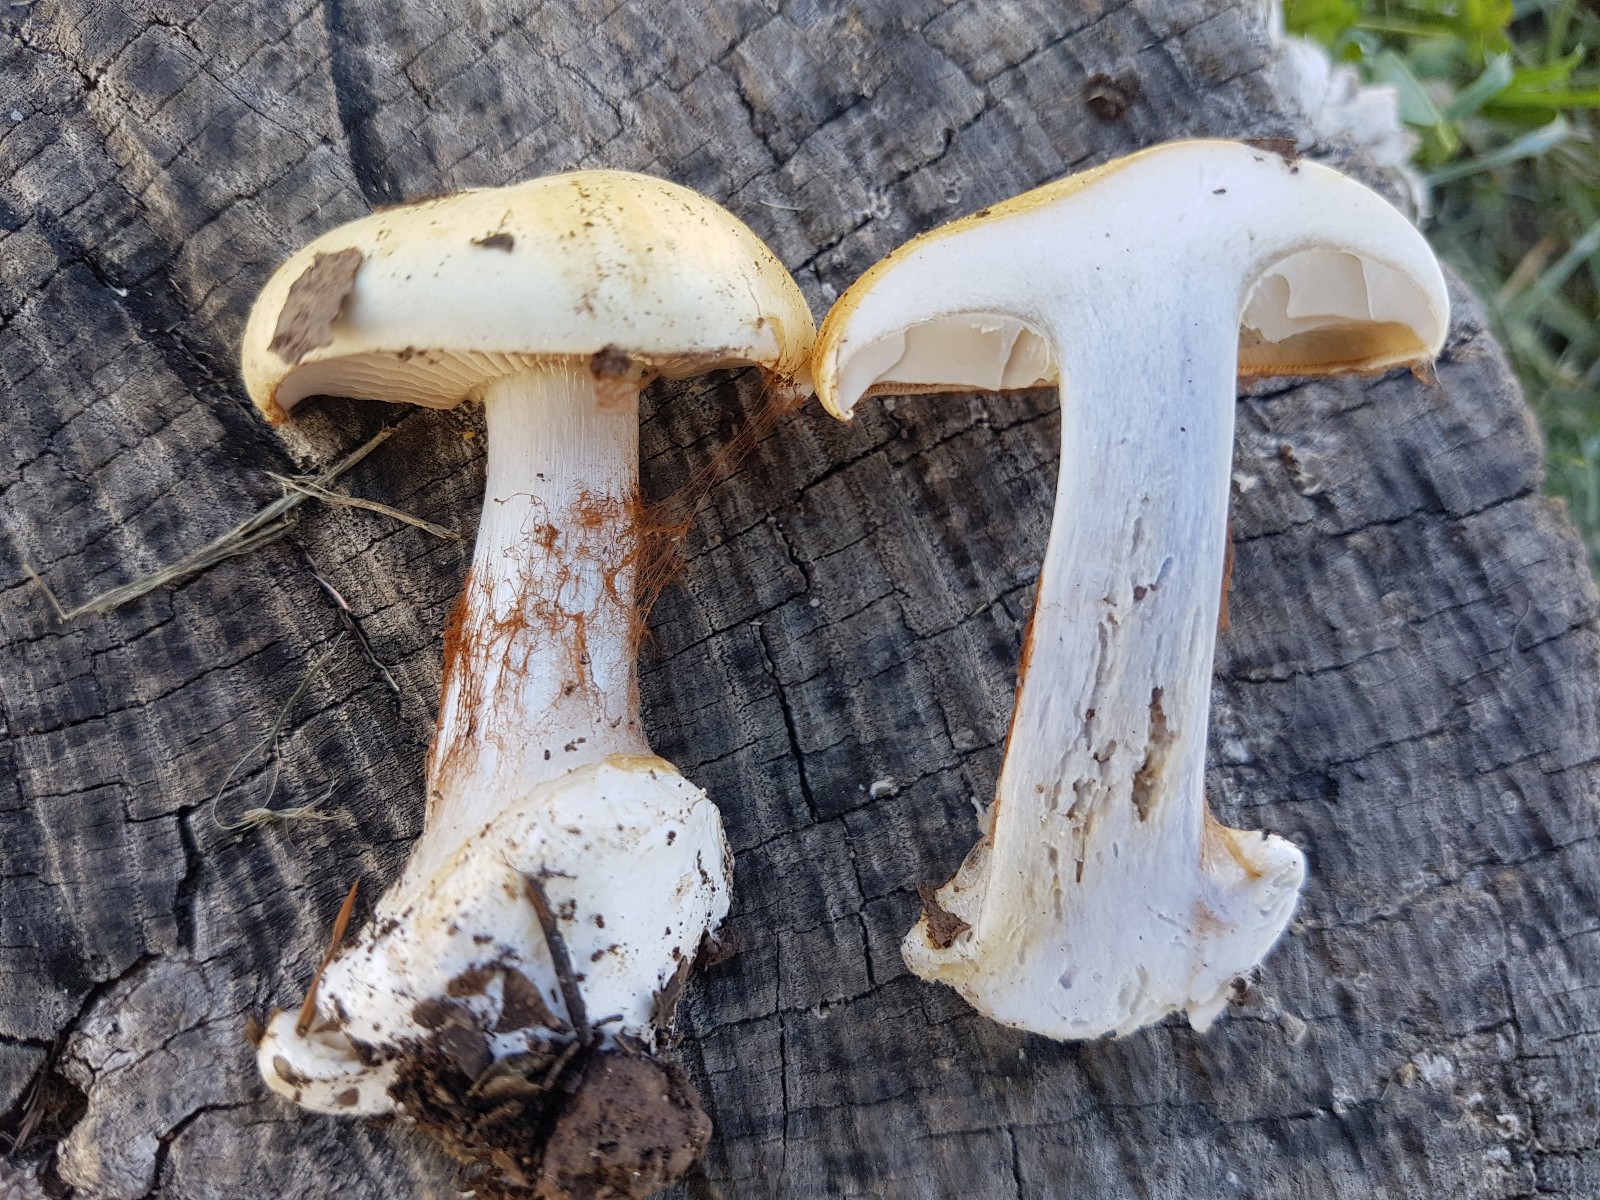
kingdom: Fungi
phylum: Basidiomycota
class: Agaricomycetes
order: Agaricales
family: Cortinariaceae
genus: Cortinarius
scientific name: Cortinarius caroviolaceus
